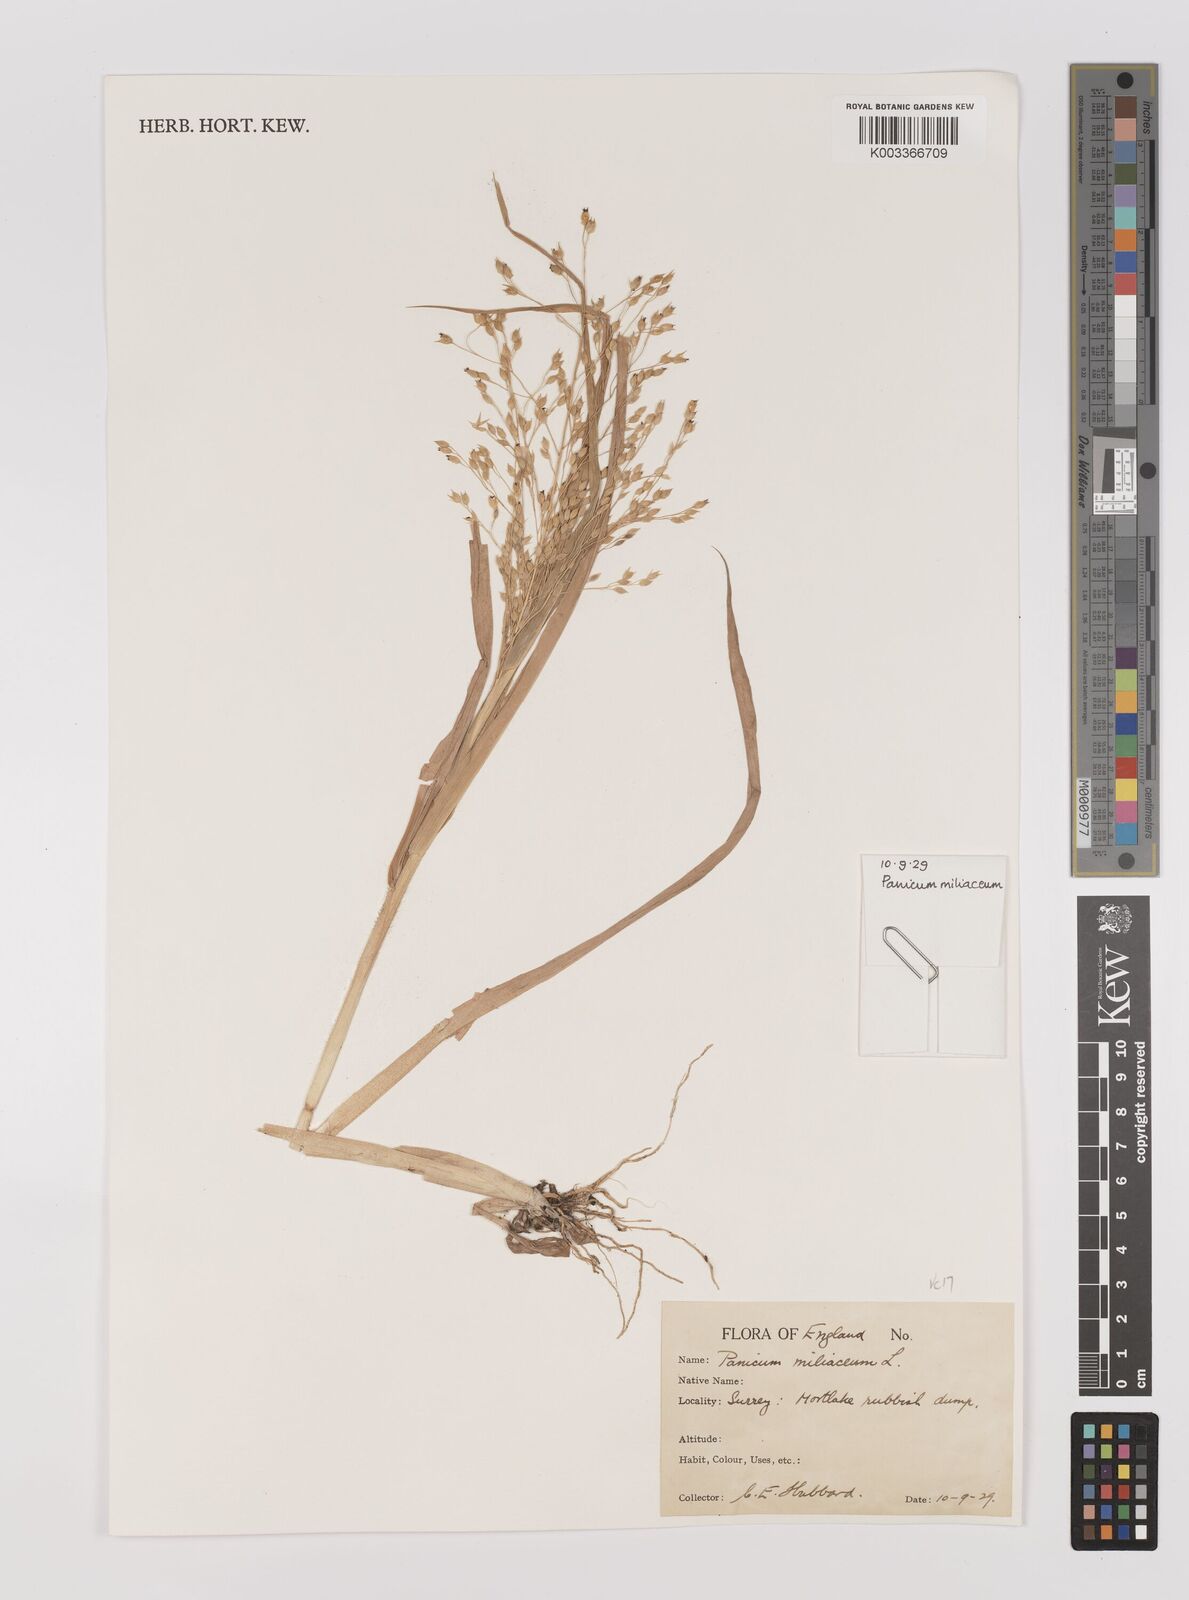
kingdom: Plantae
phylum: Tracheophyta
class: Liliopsida
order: Poales
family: Poaceae
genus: Panicum
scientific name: Panicum miliaceum
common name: Common millet
